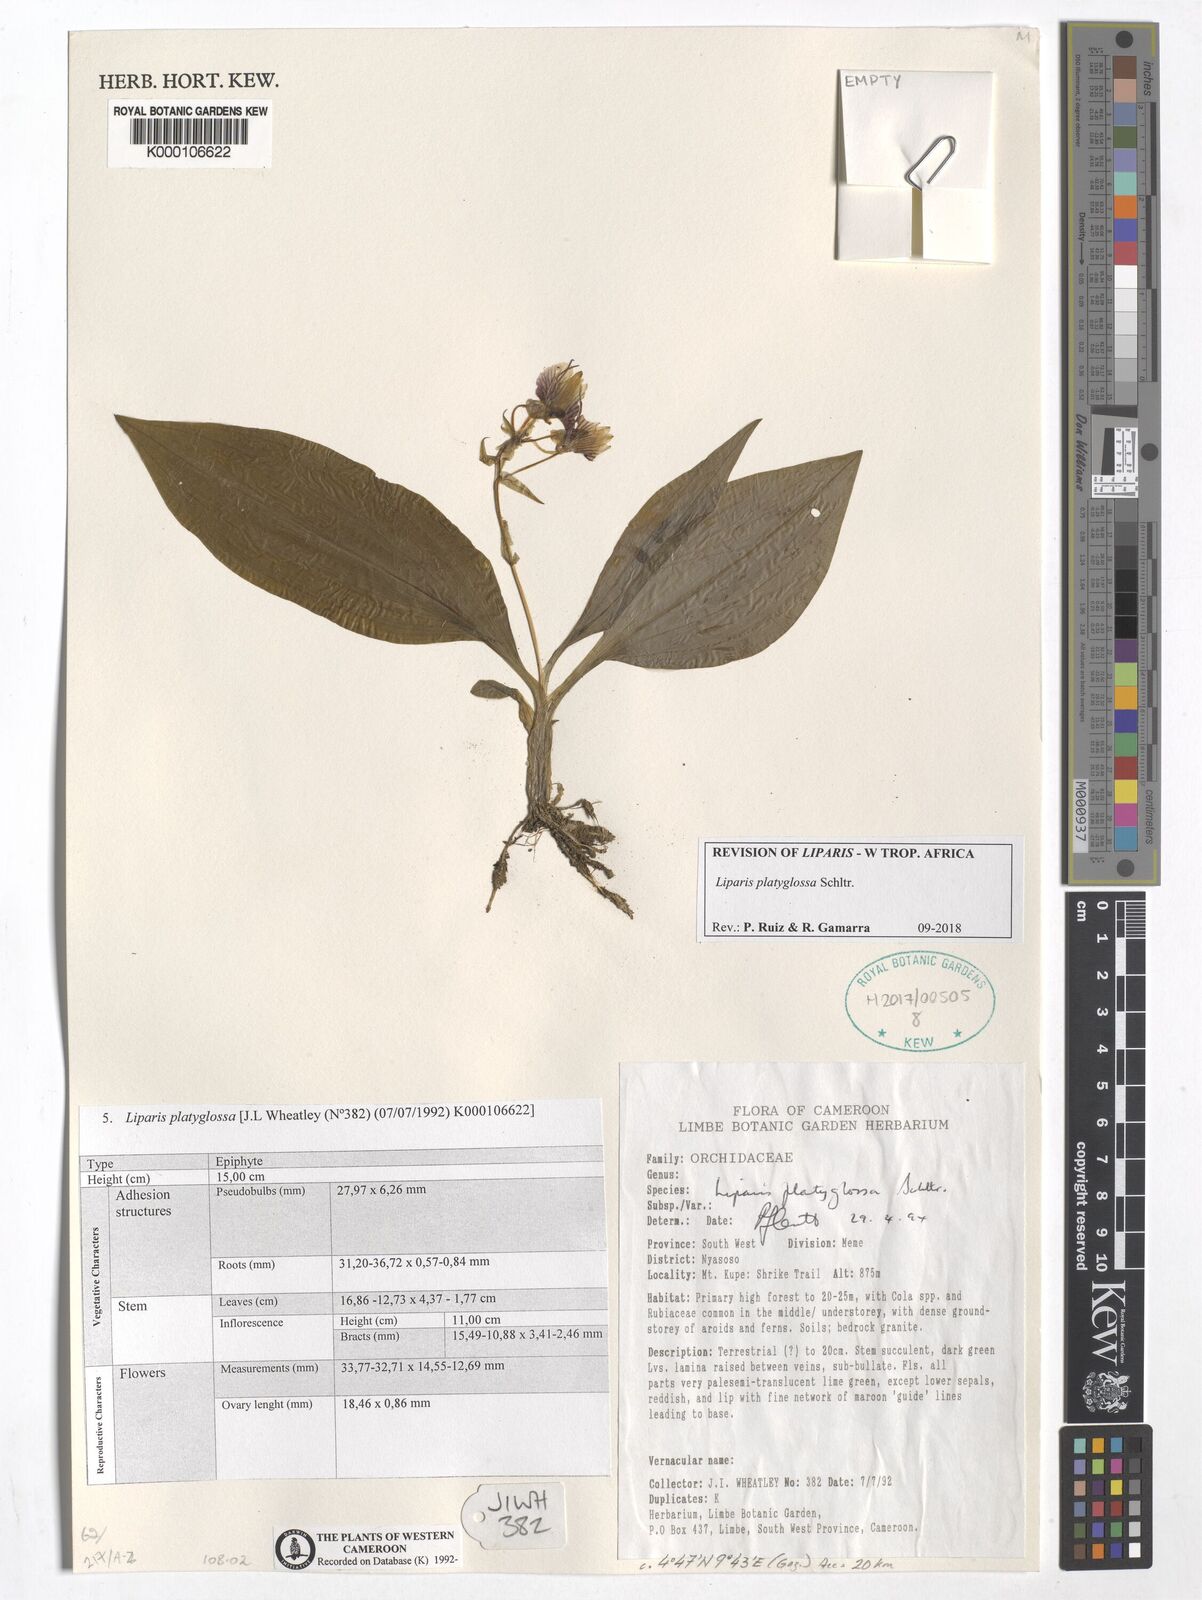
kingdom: Plantae
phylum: Tracheophyta
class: Liliopsida
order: Asparagales
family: Orchidaceae
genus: Liparis
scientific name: Liparis platyglossa
